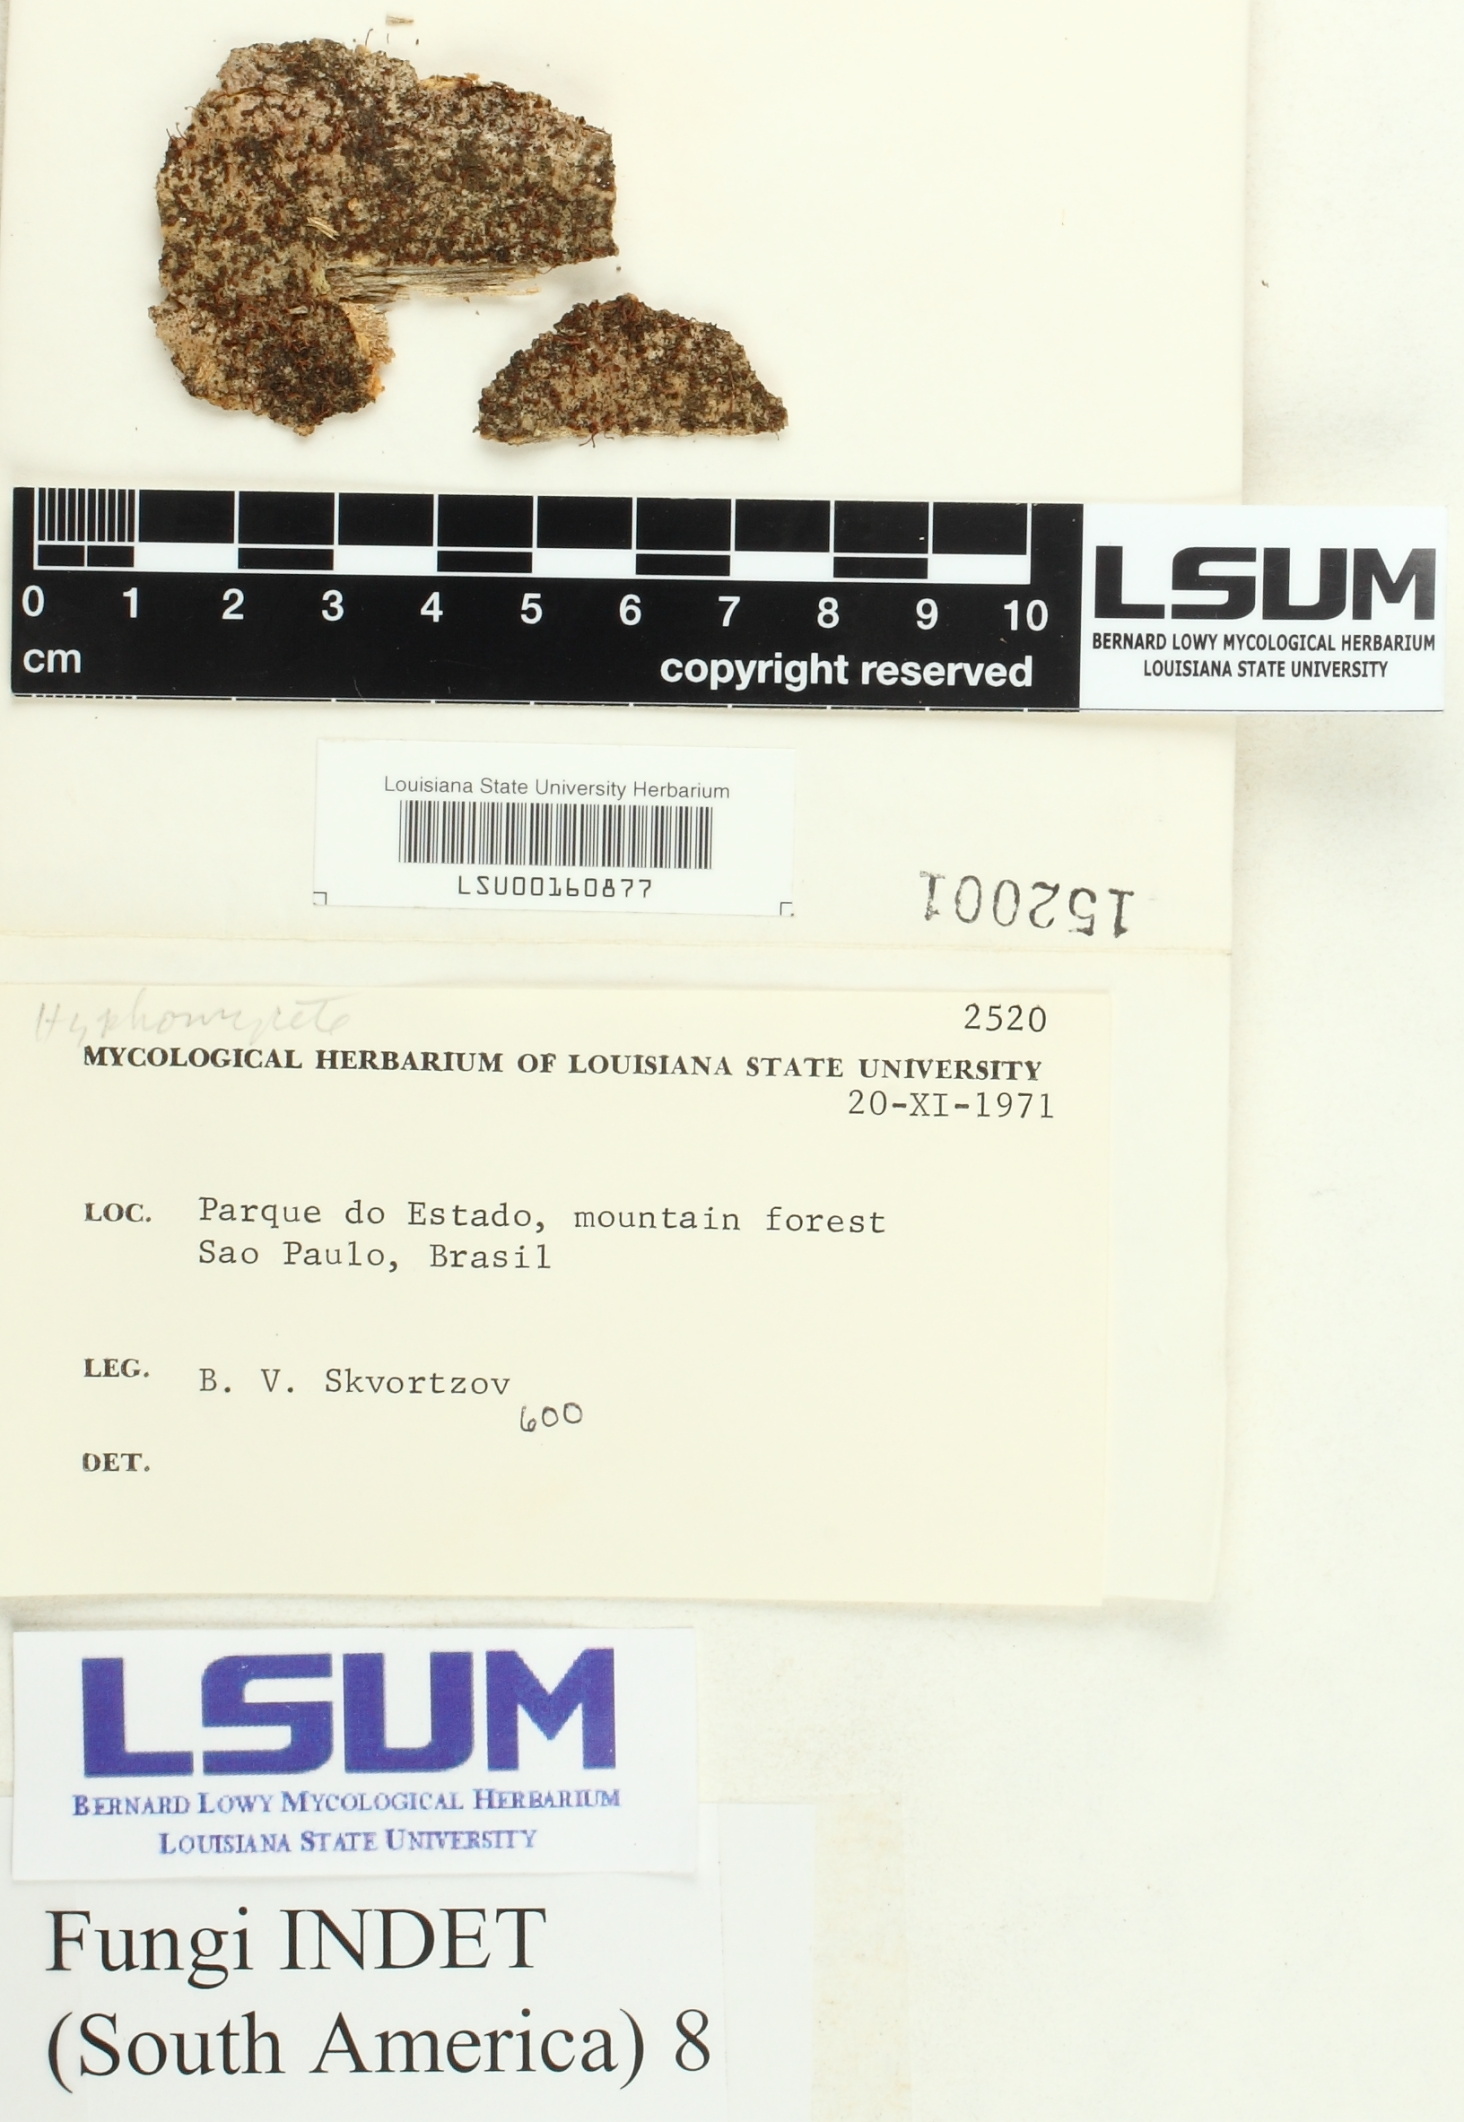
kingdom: Fungi
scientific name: Fungi
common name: Fungi
